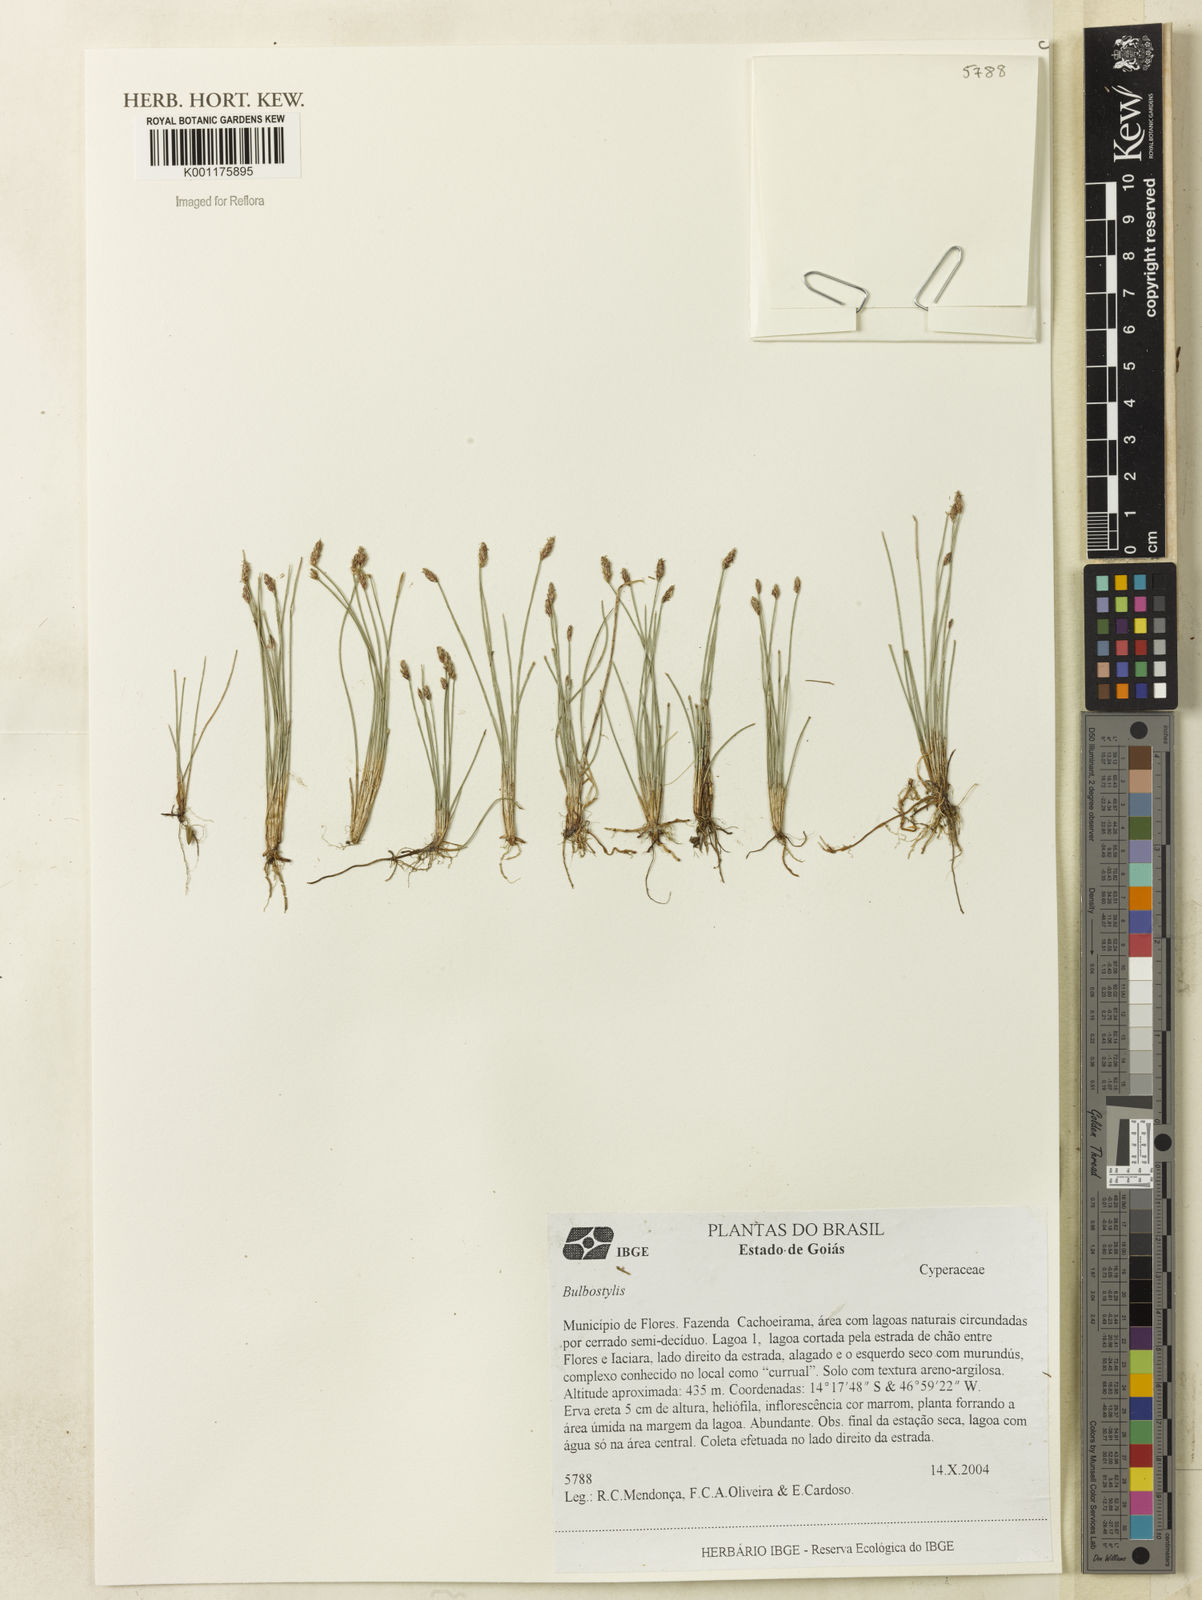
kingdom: Plantae
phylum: Tracheophyta
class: Liliopsida
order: Poales
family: Cyperaceae
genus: Bulbostylis
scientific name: Bulbostylis
